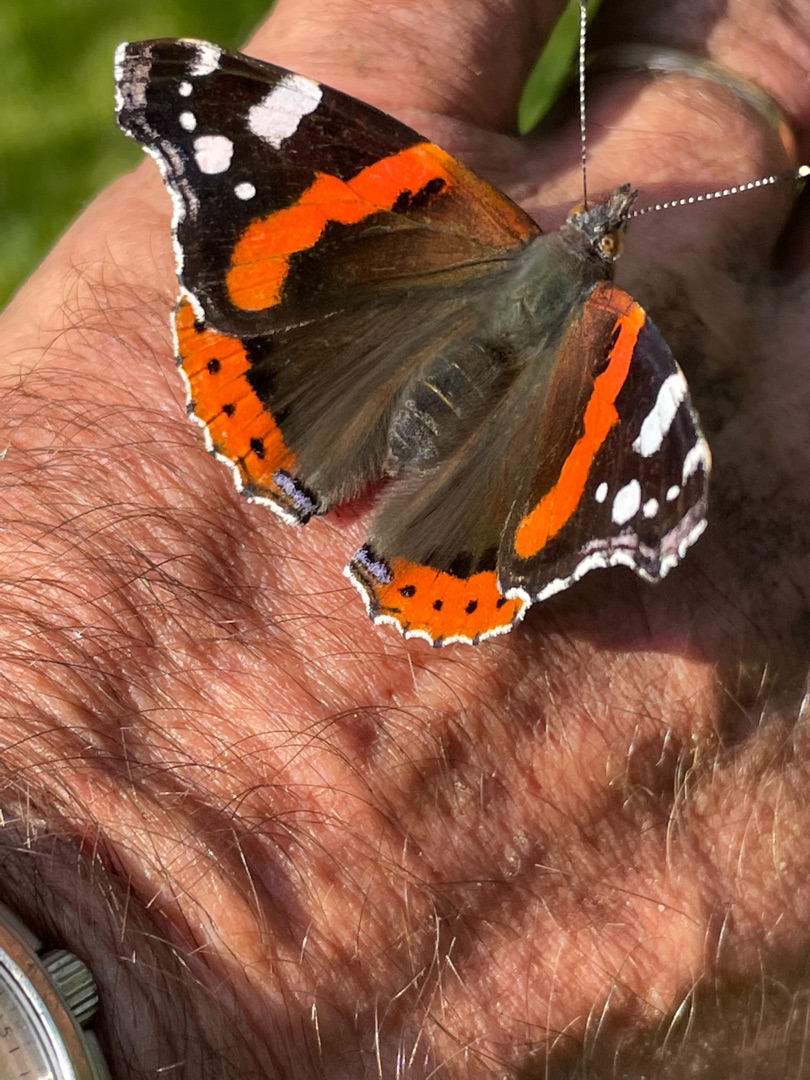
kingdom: Animalia
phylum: Arthropoda
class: Insecta
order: Lepidoptera
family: Nymphalidae
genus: Vanessa
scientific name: Vanessa atalanta
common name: Admiral
